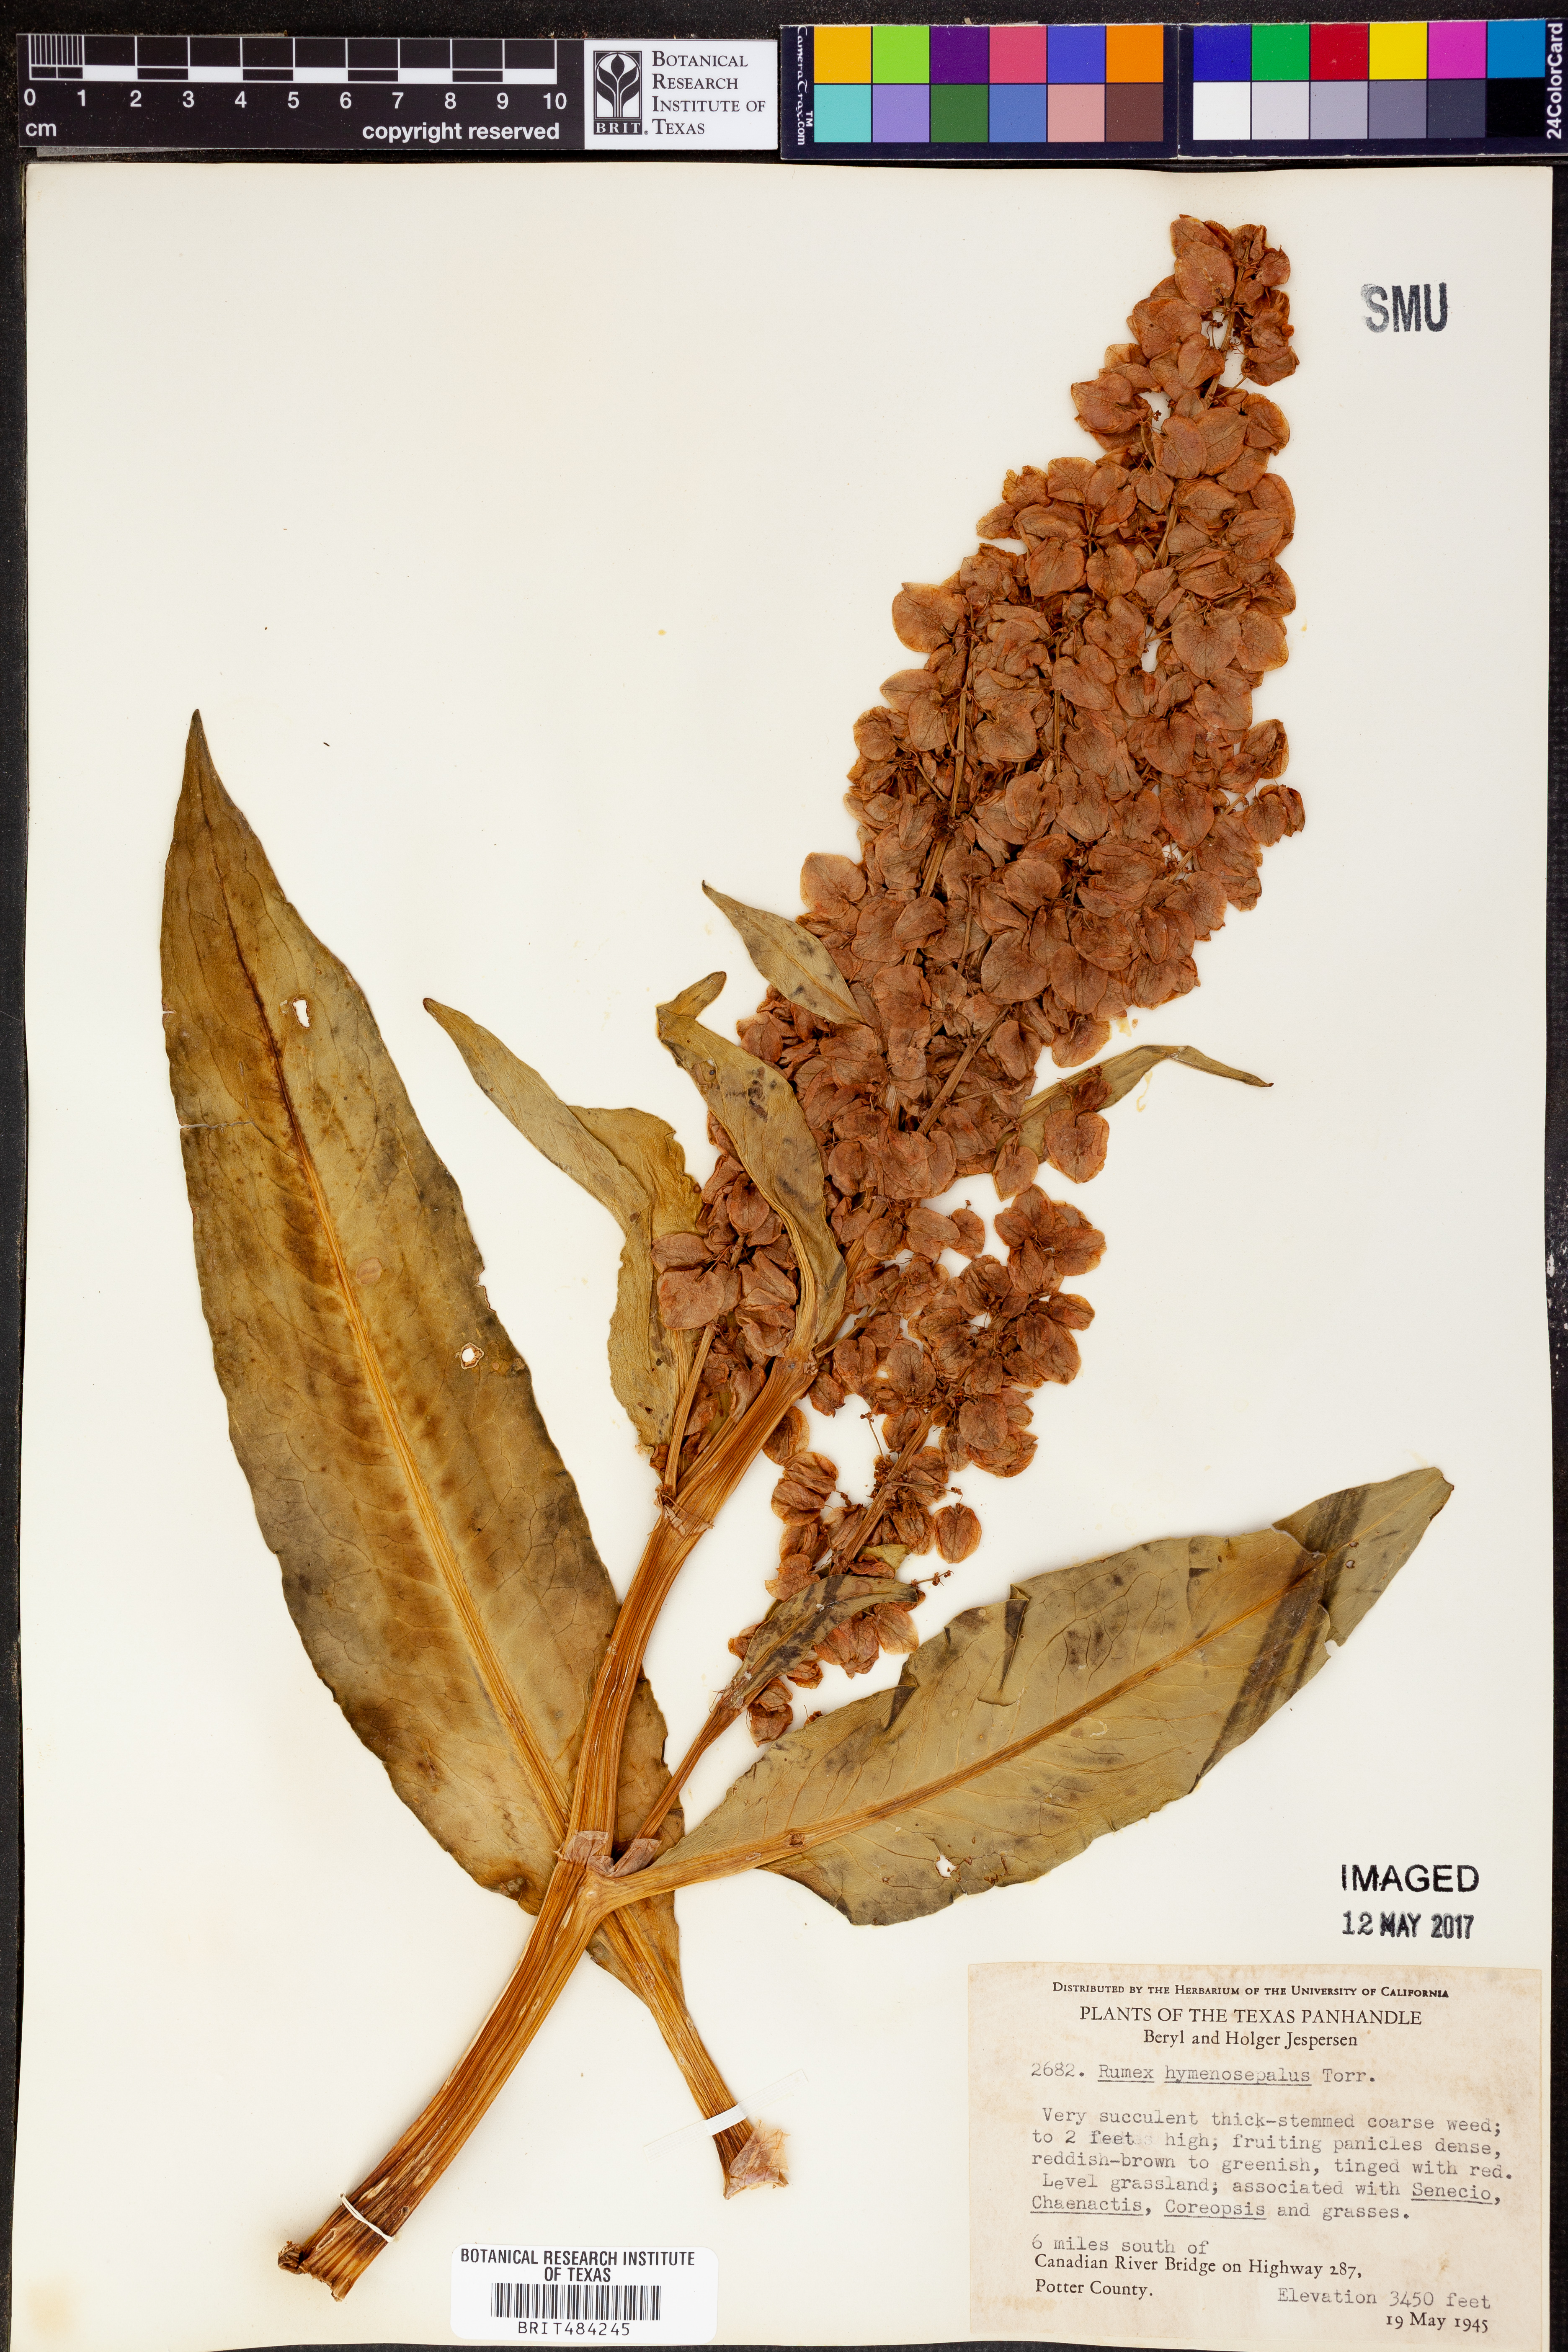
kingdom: Plantae
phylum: Tracheophyta
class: Magnoliopsida
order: Caryophyllales
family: Polygonaceae
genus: Rumex
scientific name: Rumex hymenosepalus
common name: Ganagra
